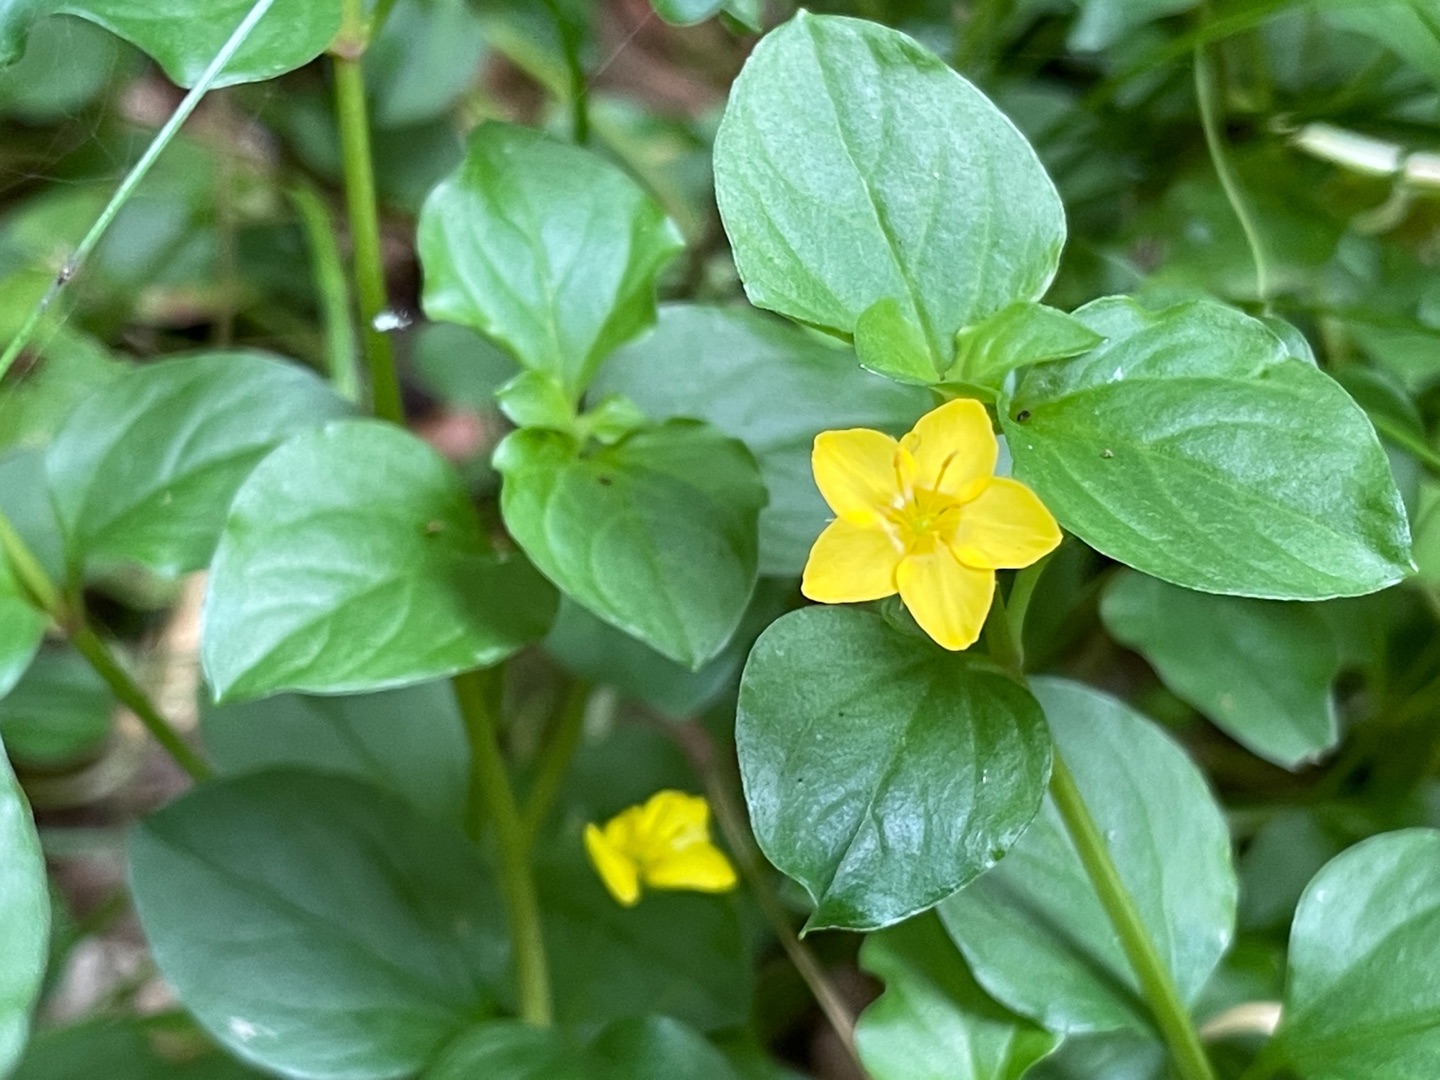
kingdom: Plantae
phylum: Tracheophyta
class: Magnoliopsida
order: Ericales
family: Primulaceae
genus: Lysimachia
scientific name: Lysimachia nemorum
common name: Lund-fredløs
